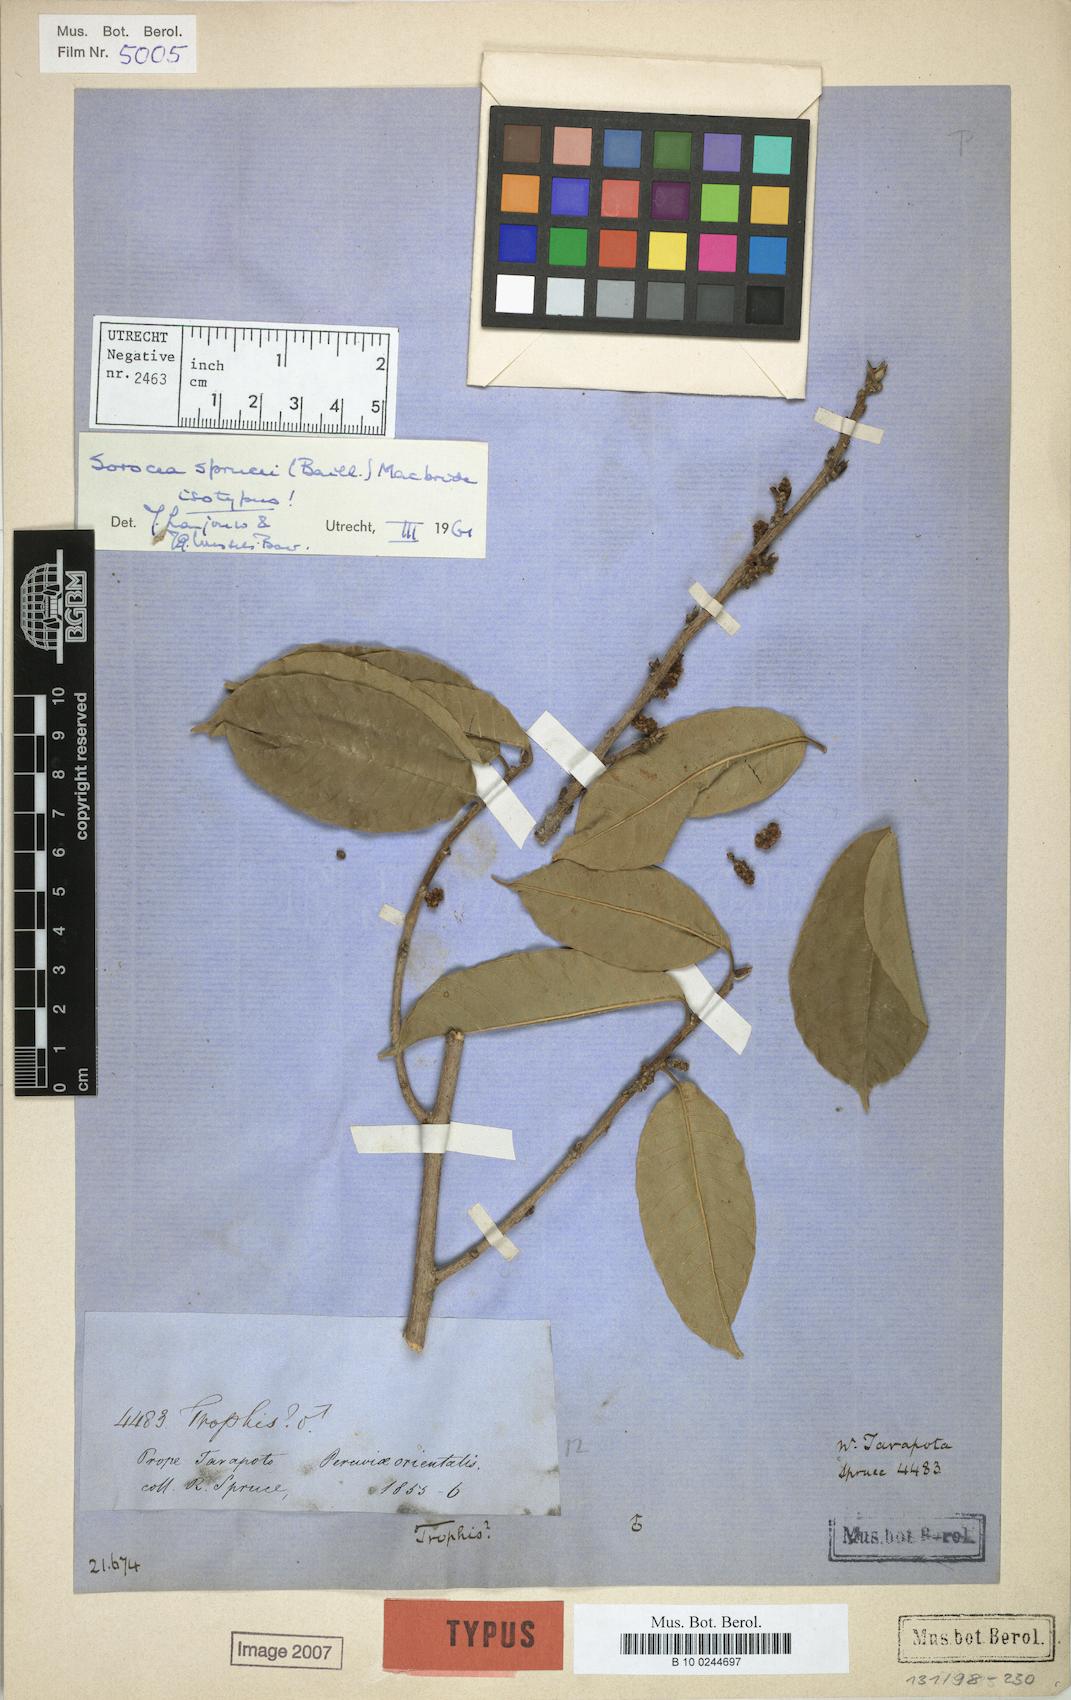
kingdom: Plantae
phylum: Tracheophyta
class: Magnoliopsida
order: Rosales
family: Moraceae
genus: Sorocea
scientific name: Sorocea sprucei
